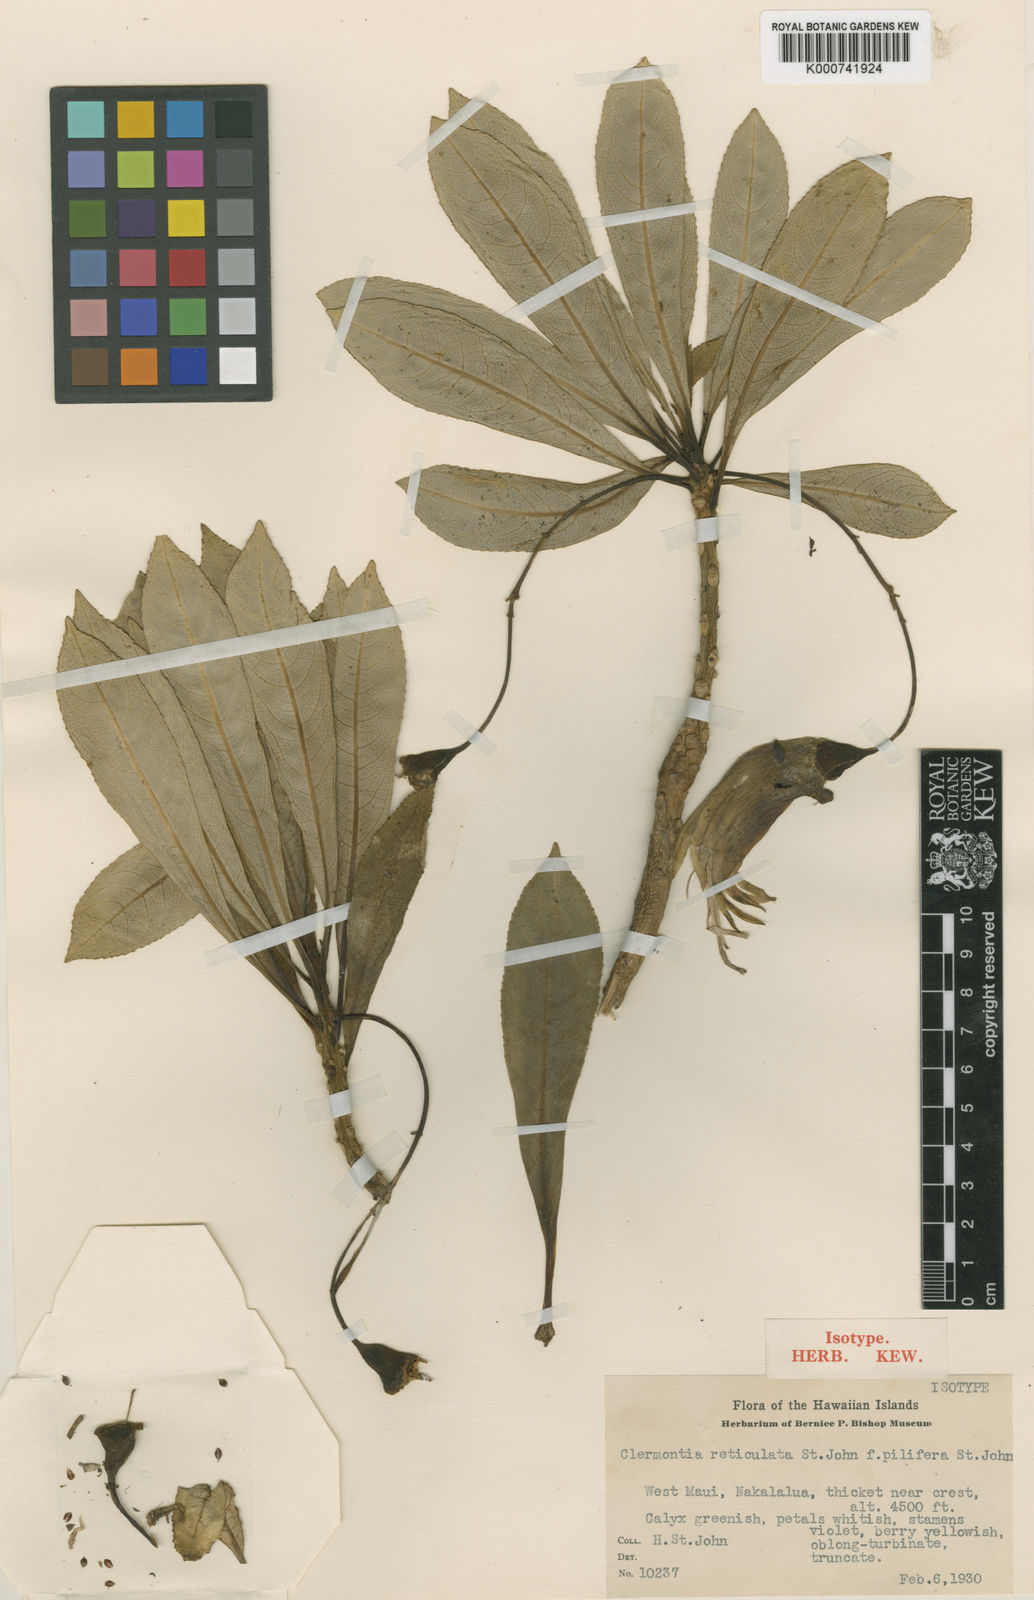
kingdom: Plantae
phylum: Tracheophyta
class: Magnoliopsida
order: Asterales
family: Campanulaceae
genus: Clermontia
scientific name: Clermontia grandiflora
